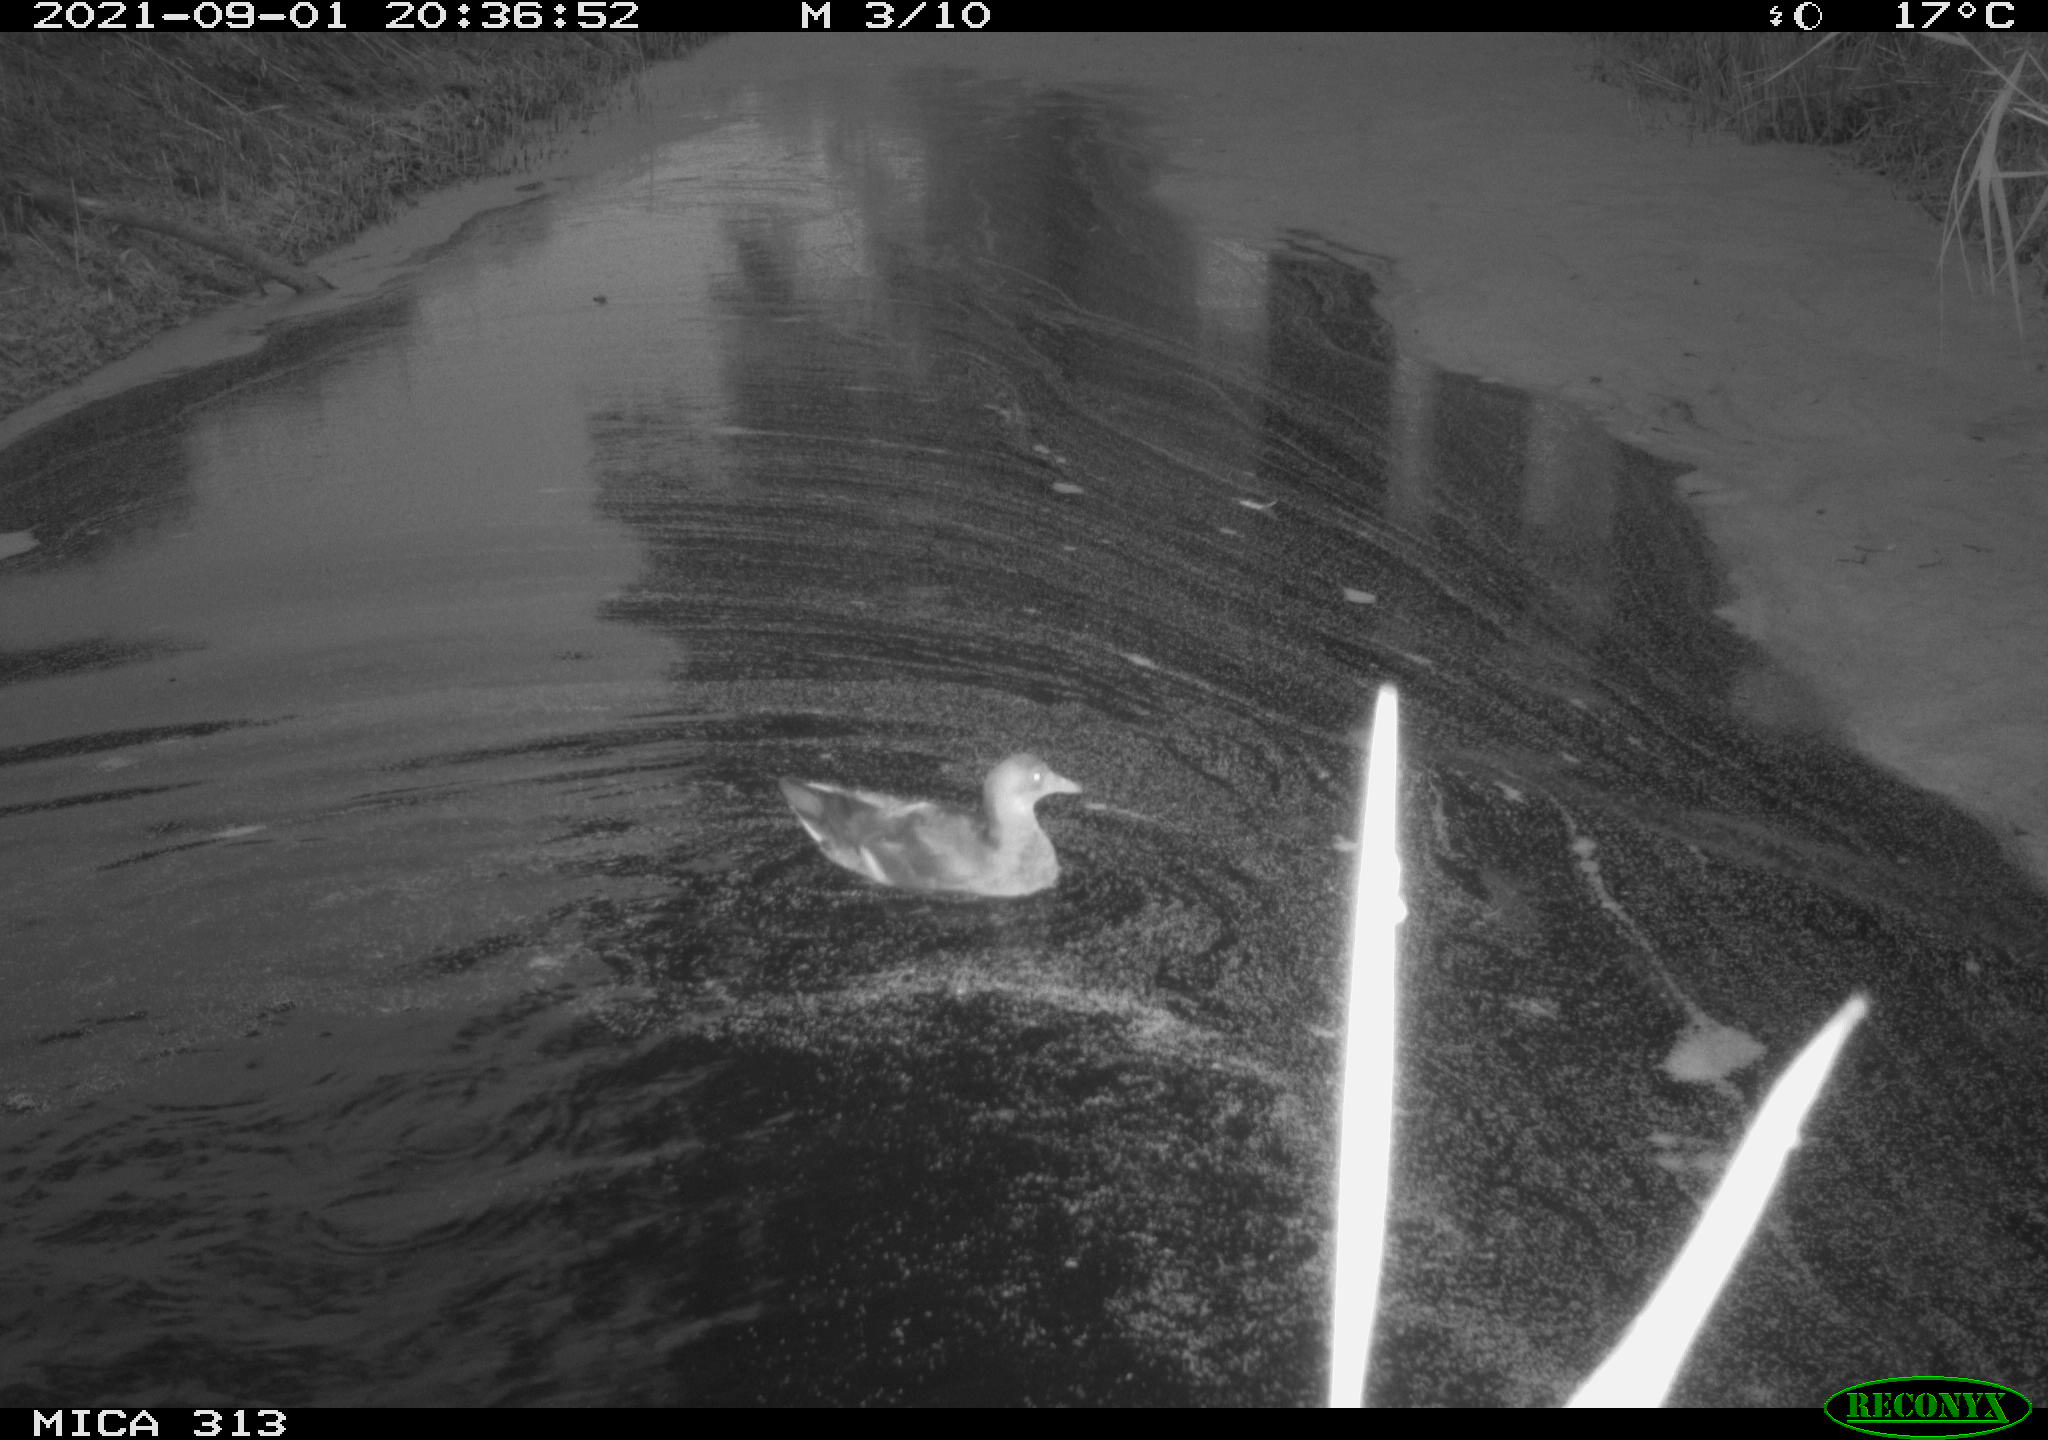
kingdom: Animalia
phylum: Chordata
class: Aves
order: Anseriformes
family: Anatidae
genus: Mareca
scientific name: Mareca strepera
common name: Gadwall
